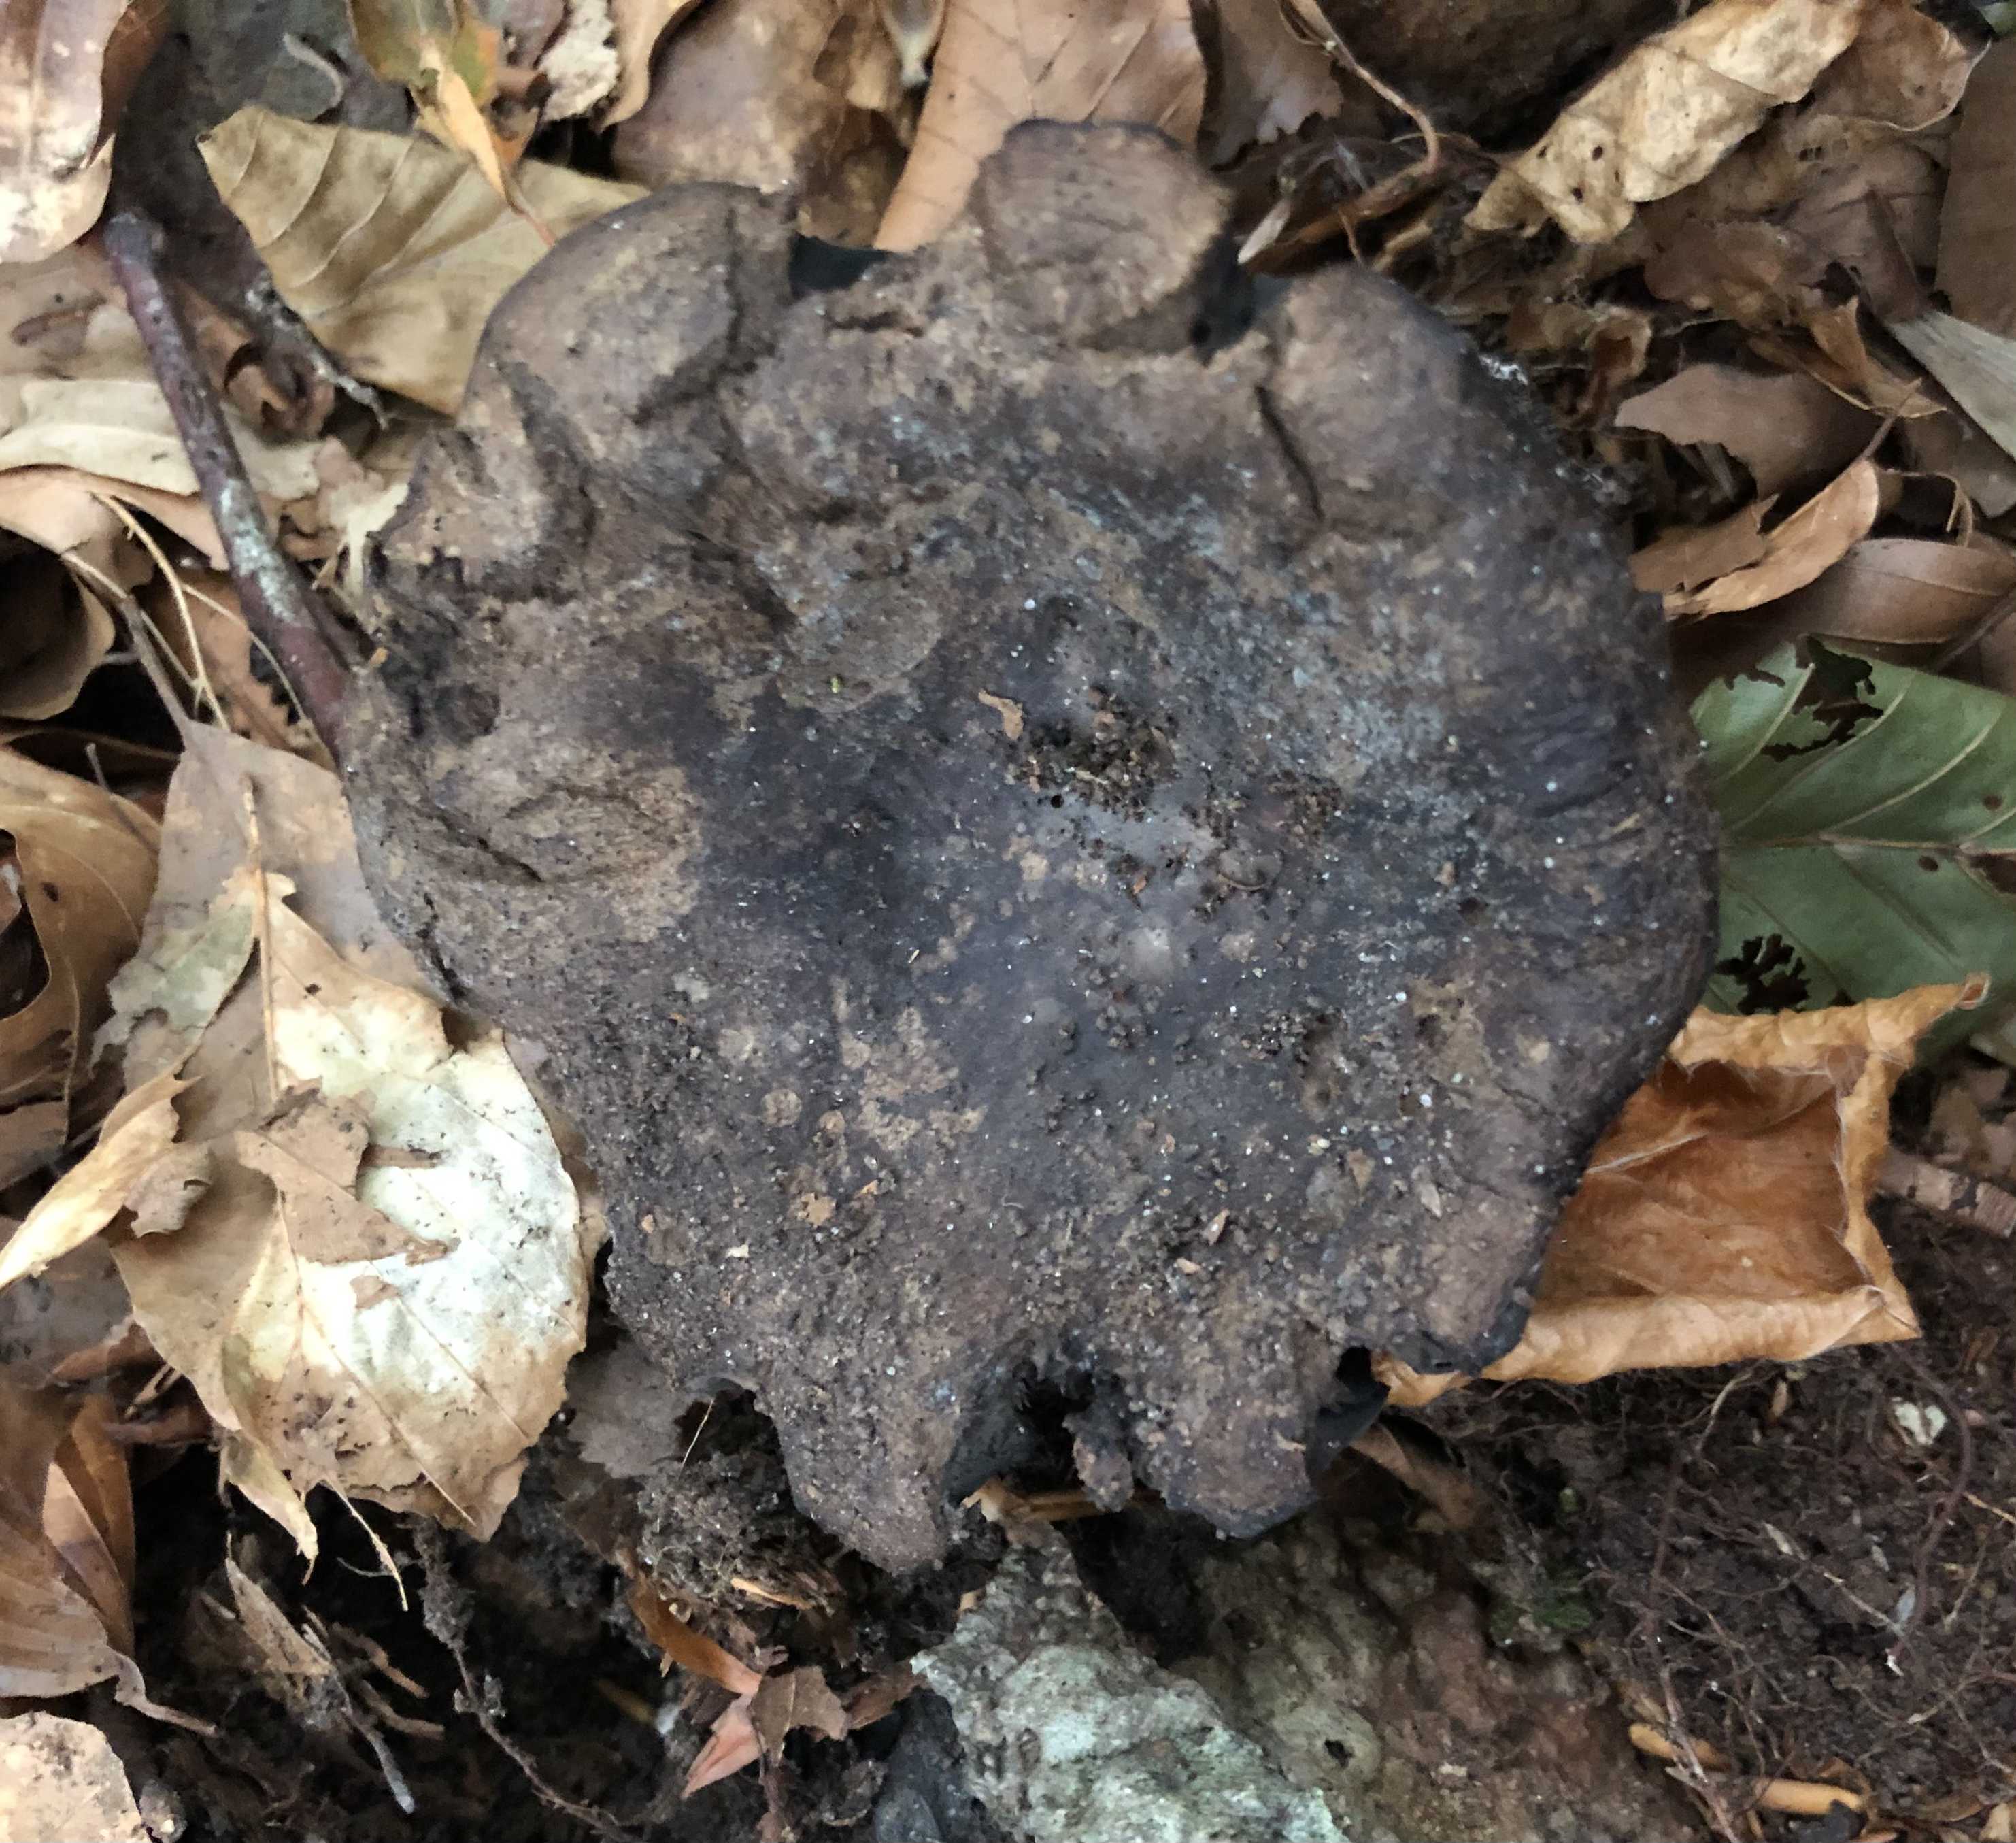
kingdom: Fungi
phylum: Basidiomycota
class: Agaricomycetes
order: Russulales
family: Russulaceae
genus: Russula
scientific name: Russula adusta
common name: sværtende skørhat
